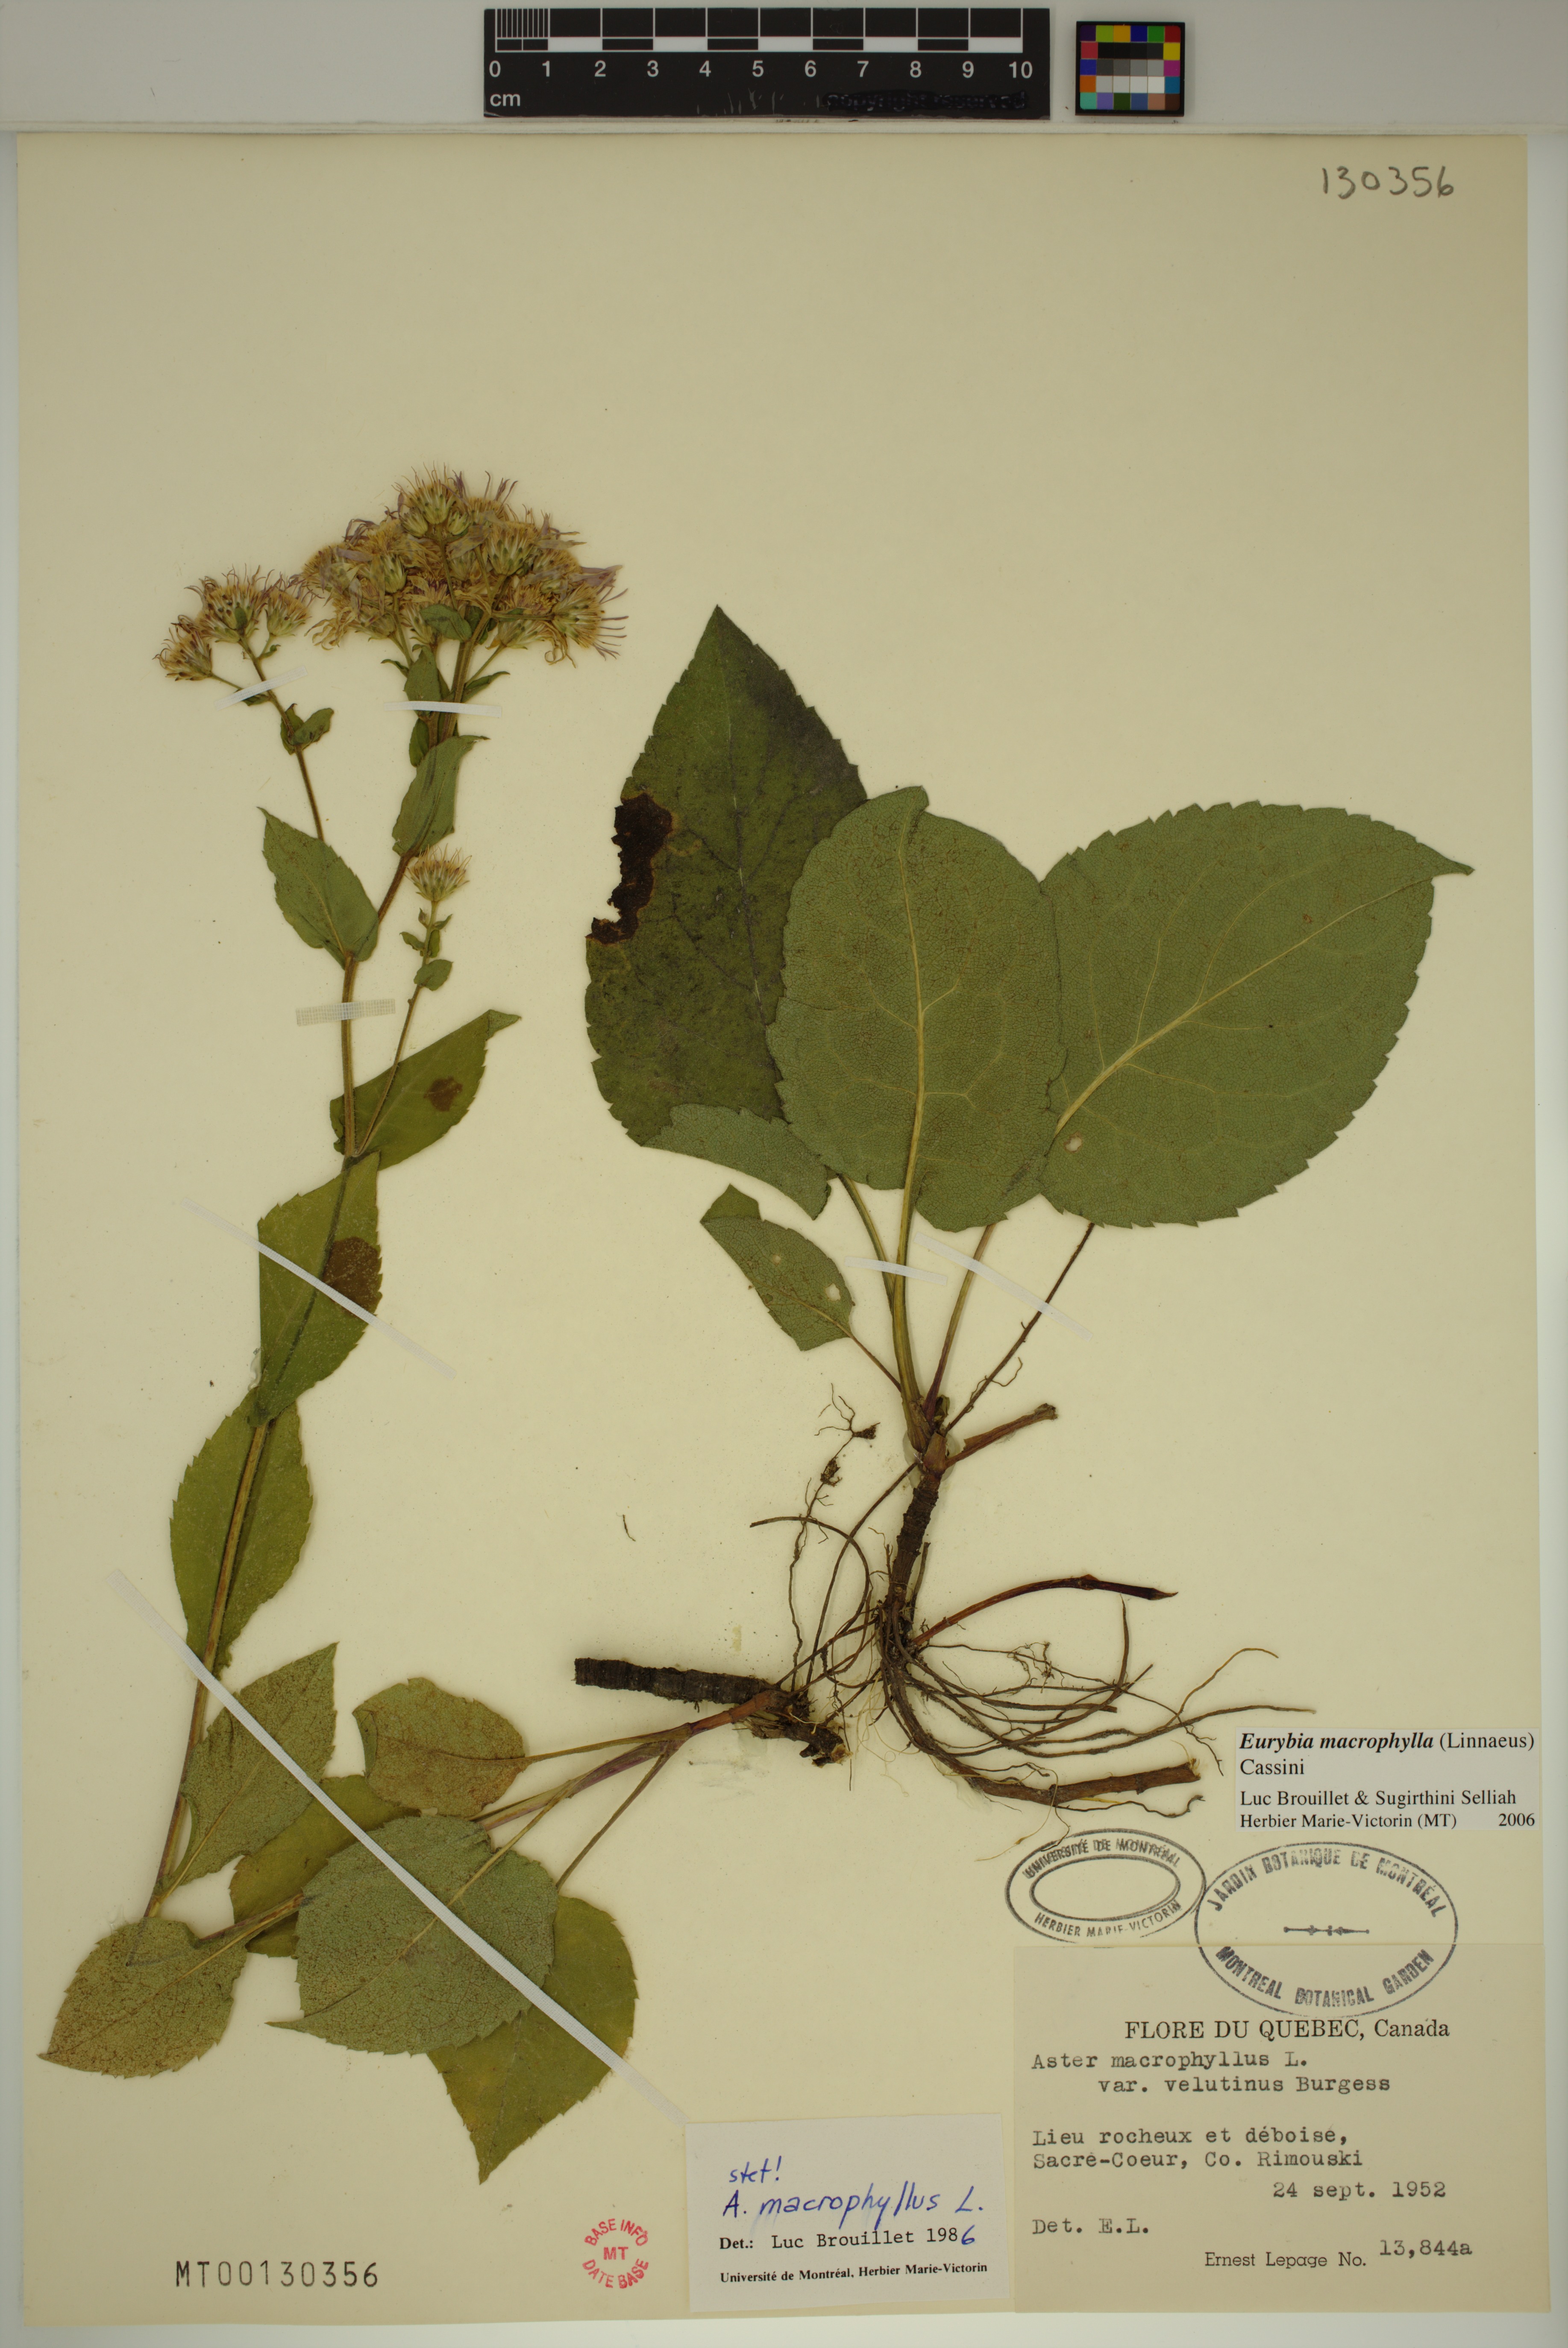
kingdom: Plantae
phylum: Tracheophyta
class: Magnoliopsida
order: Asterales
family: Asteraceae
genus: Eurybia
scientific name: Eurybia macrophylla
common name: Big-leaved aster
